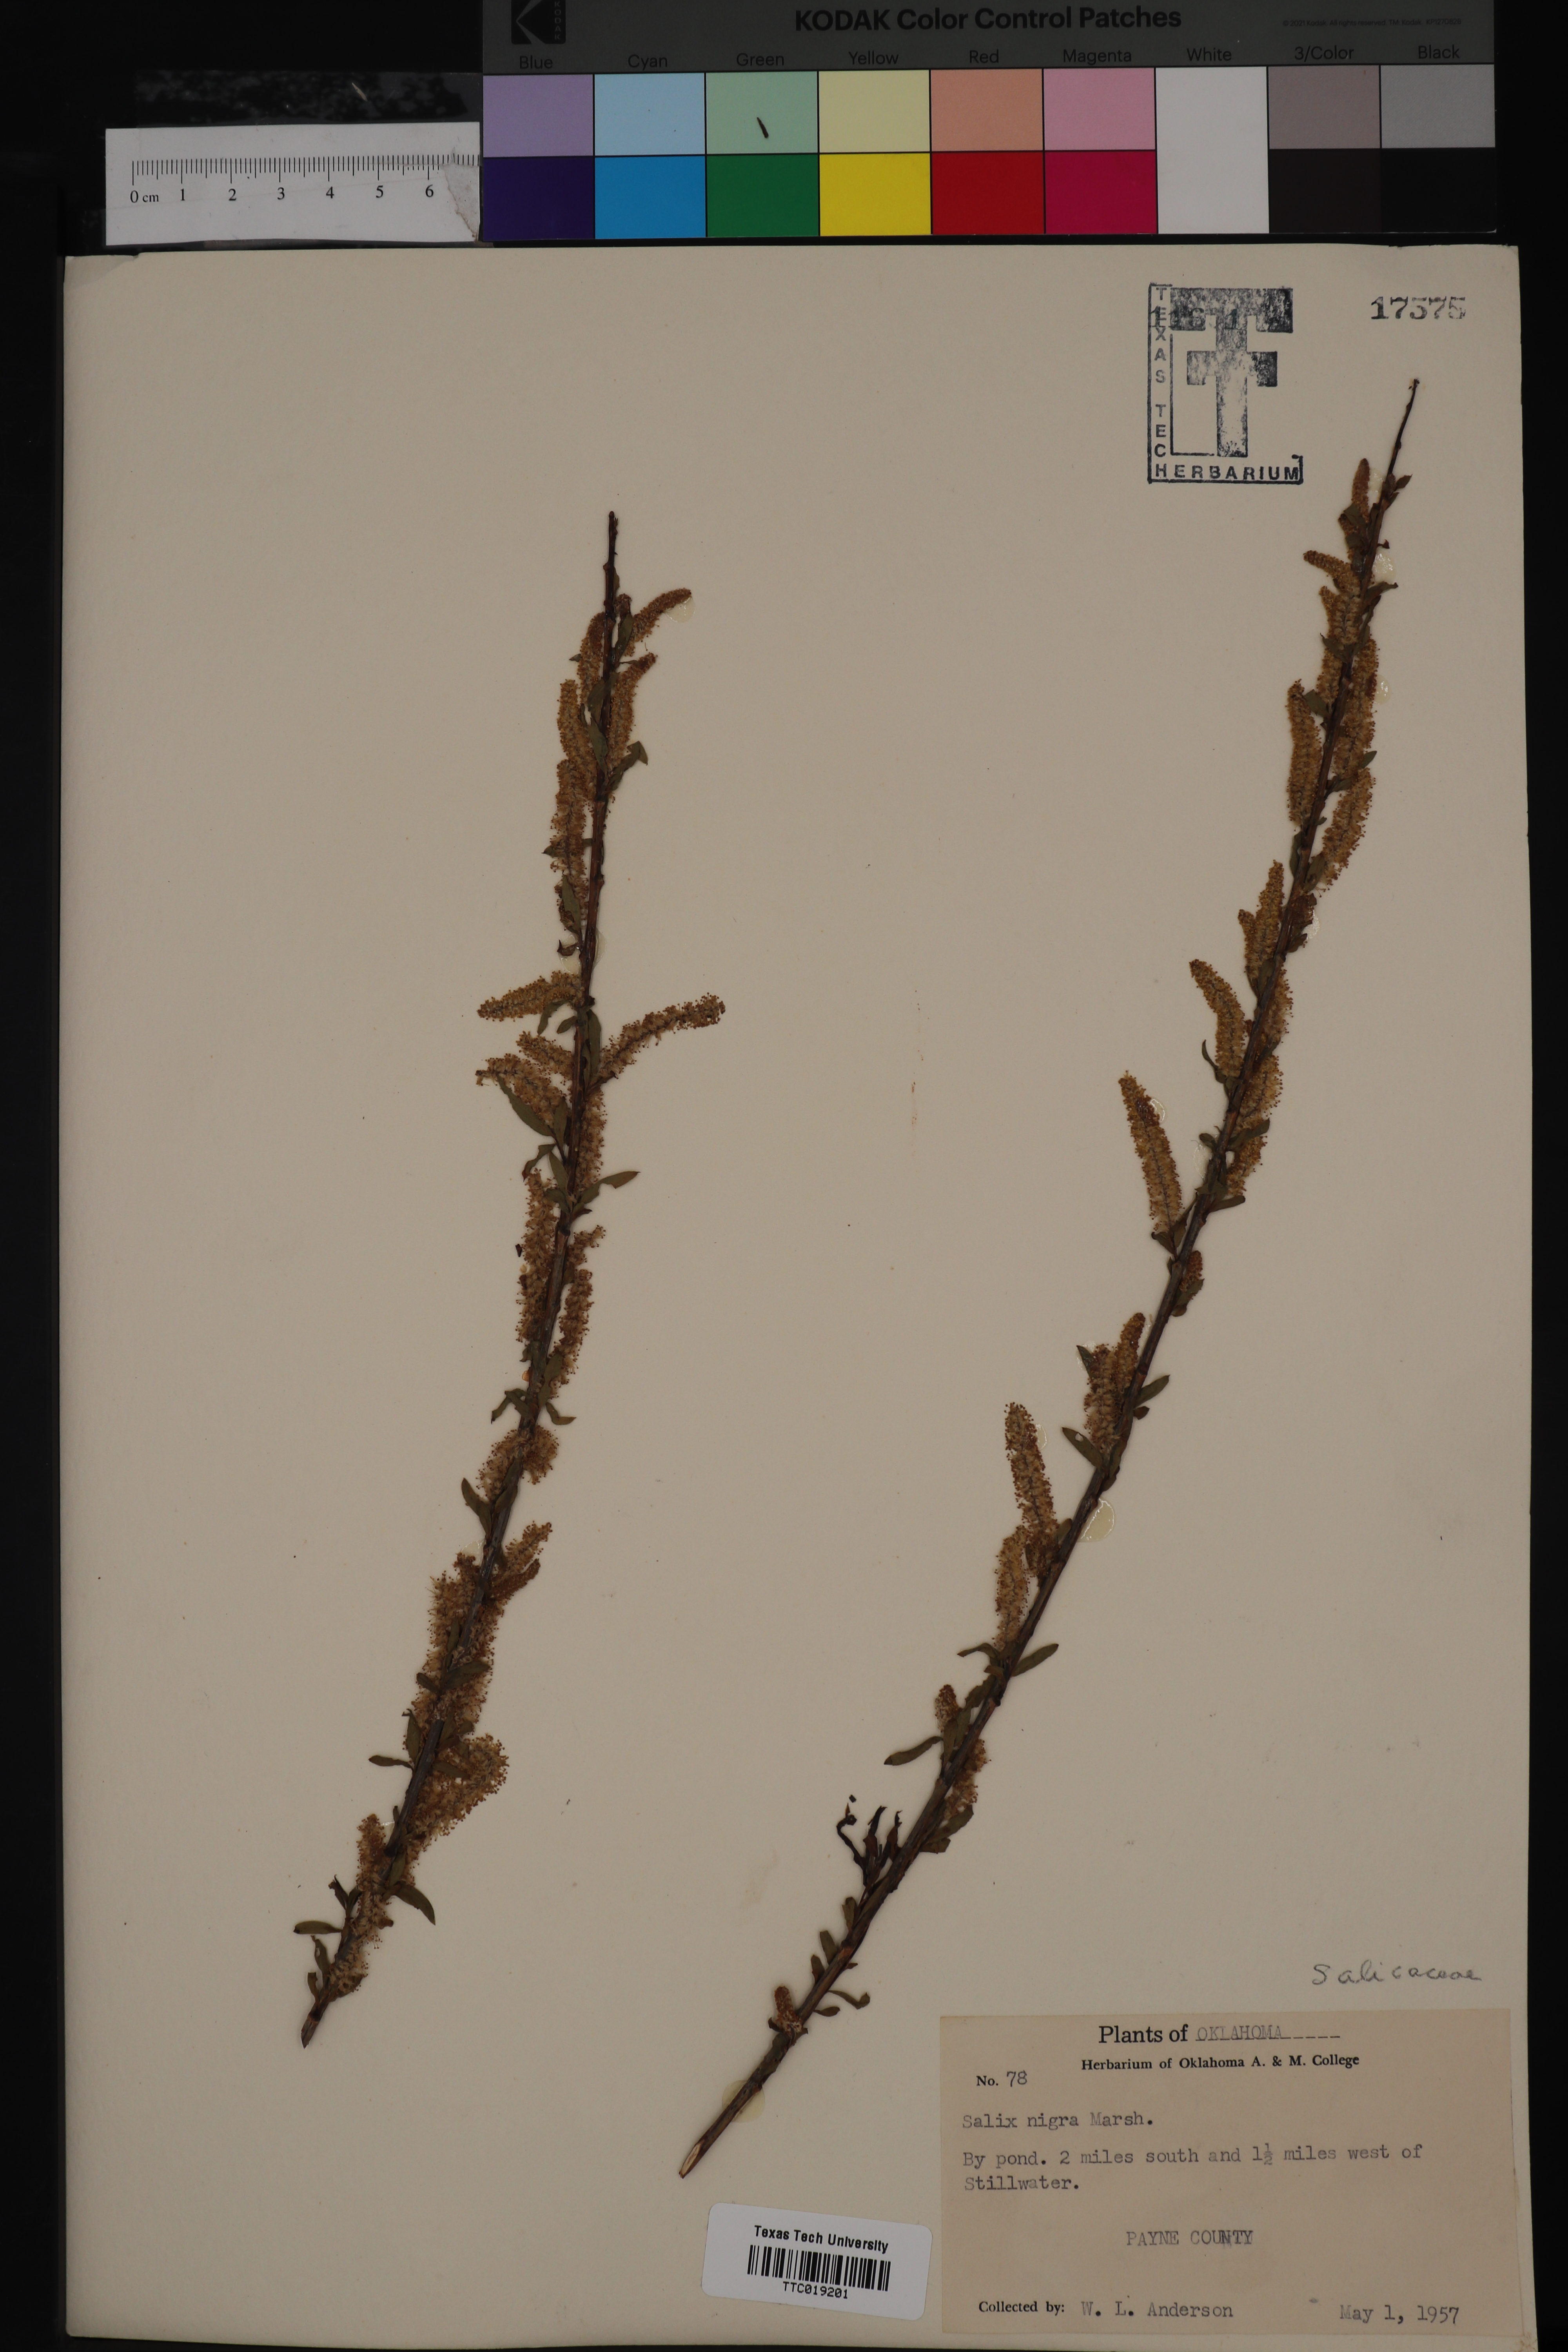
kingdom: Plantae
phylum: Tracheophyta
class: Magnoliopsida
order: Malpighiales
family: Salicaceae
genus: Salix
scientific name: Salix nigra
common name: Black willow
